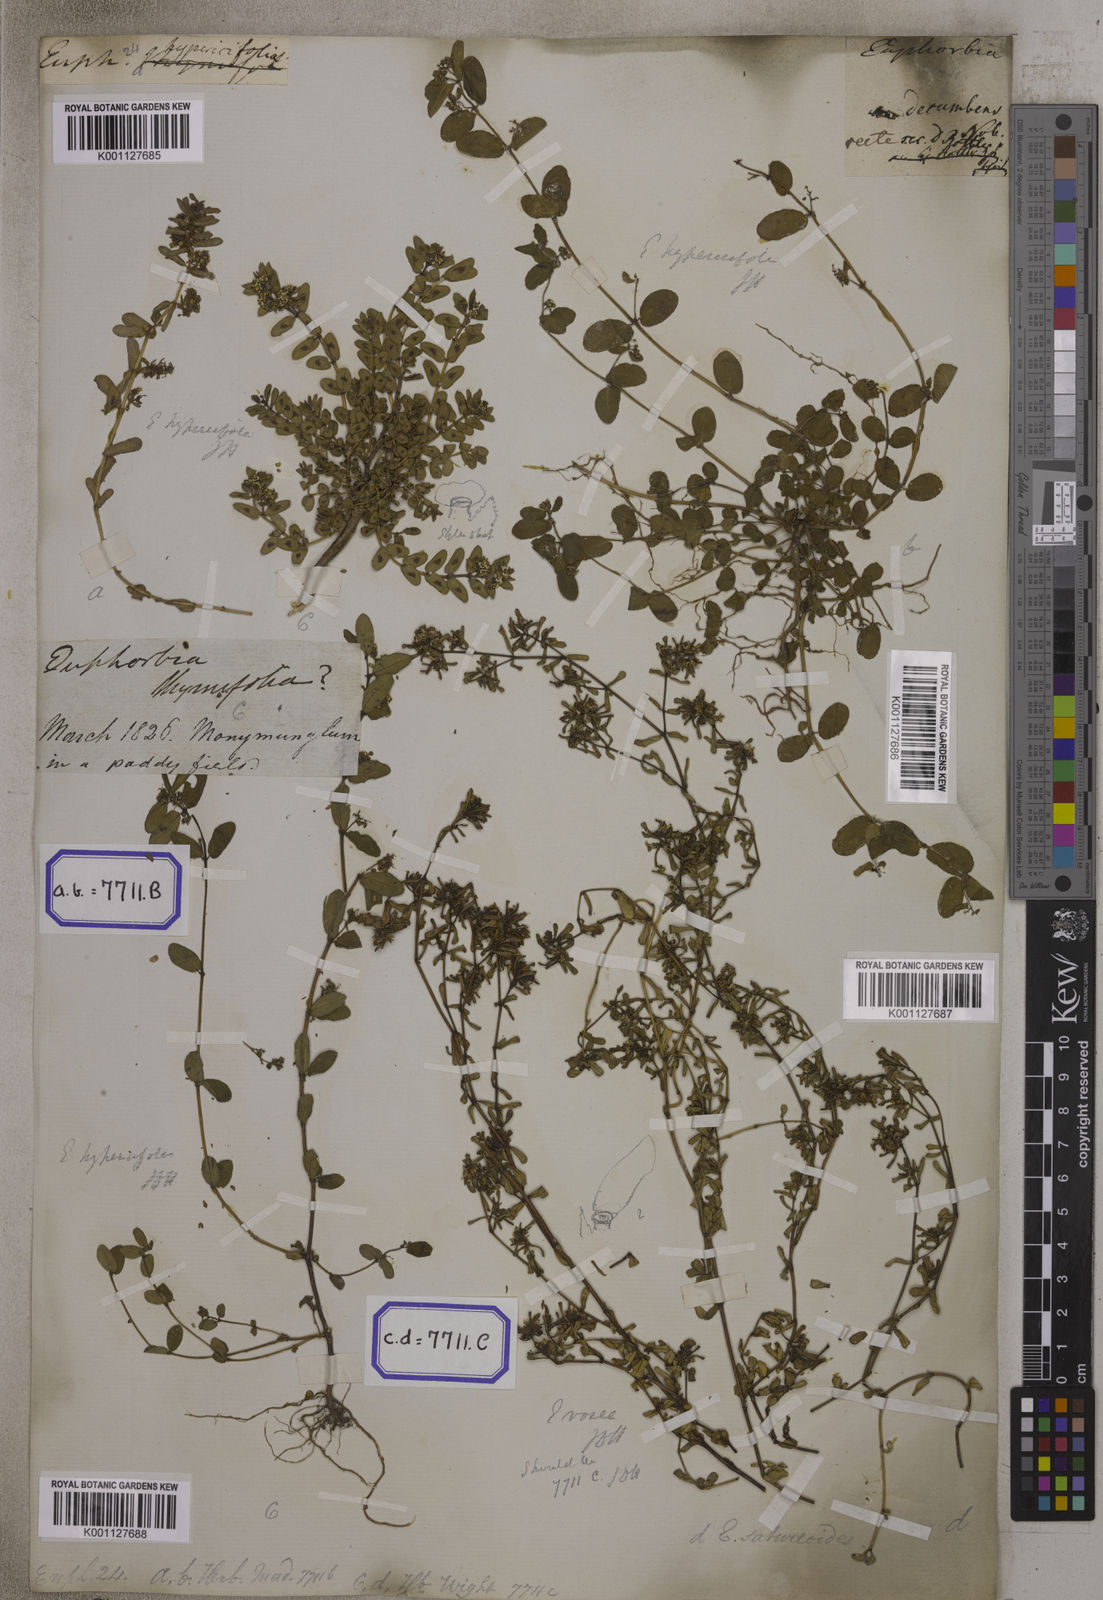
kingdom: Plantae
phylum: Tracheophyta
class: Magnoliopsida
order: Malpighiales
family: Euphorbiaceae
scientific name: Euphorbiaceae
